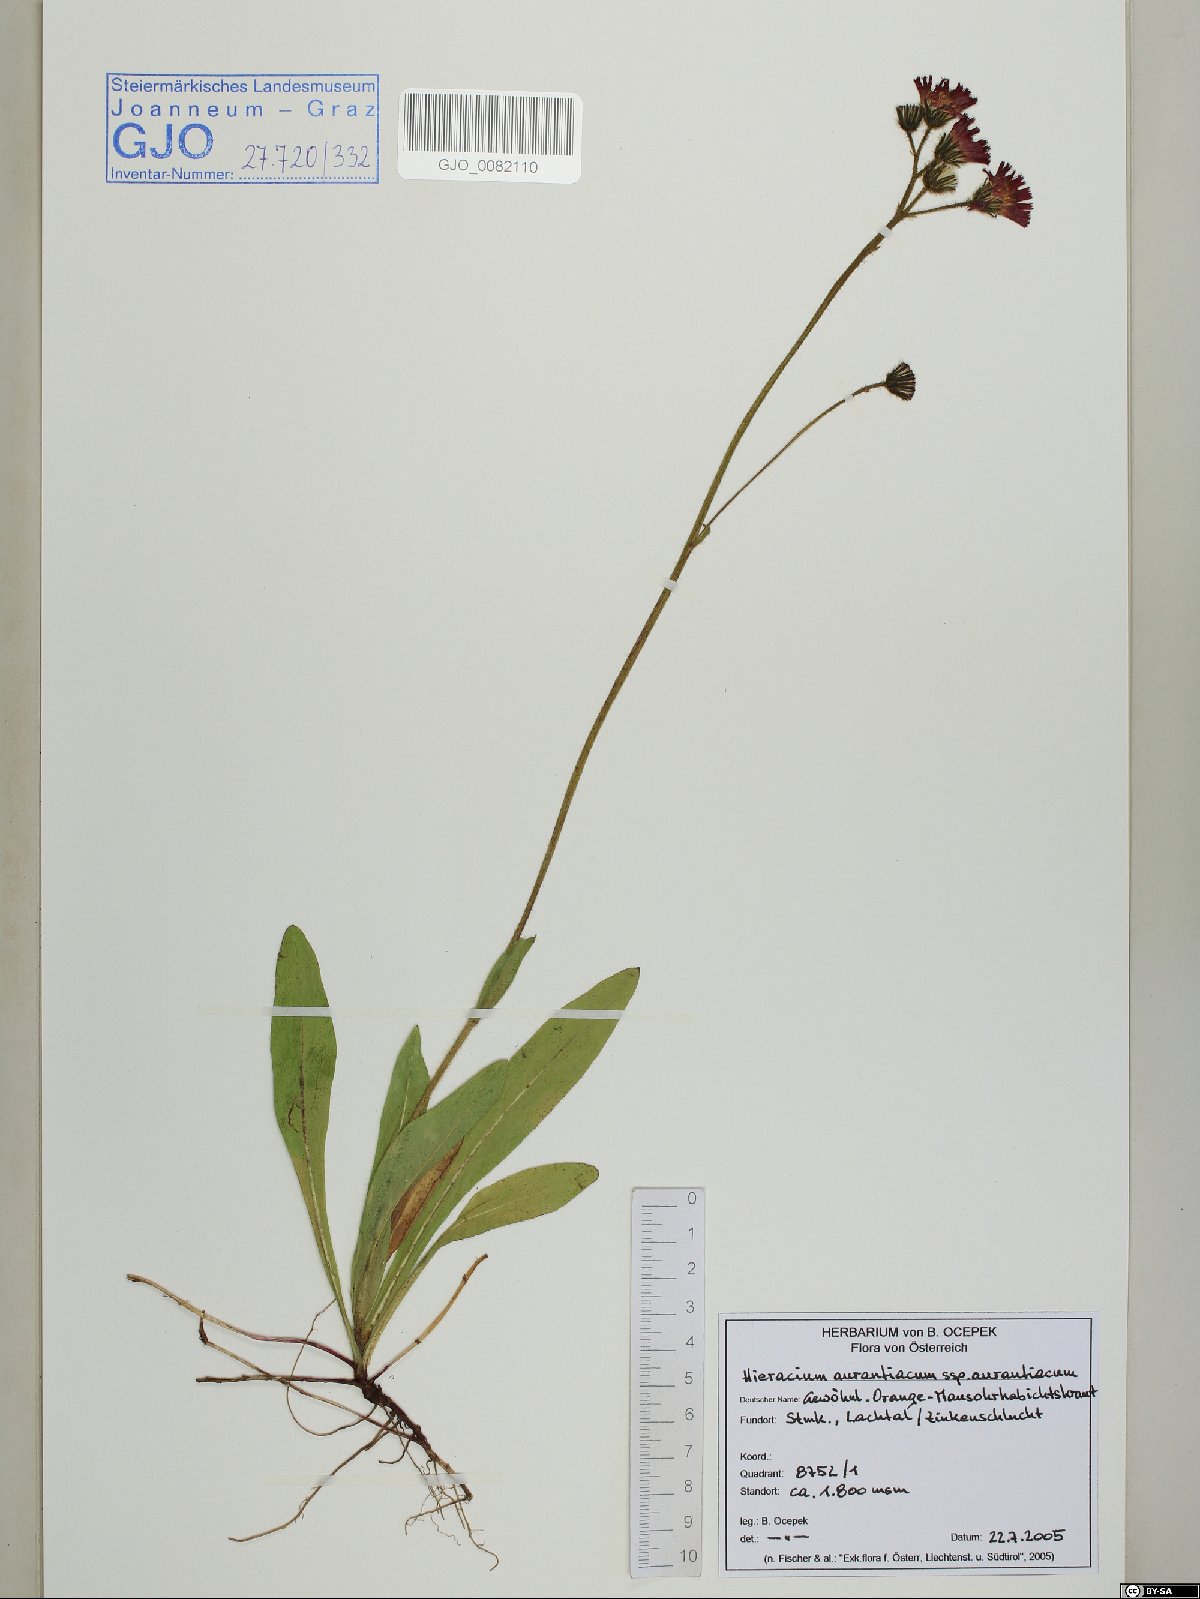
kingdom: Plantae
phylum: Tracheophyta
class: Magnoliopsida
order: Asterales
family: Asteraceae
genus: Pilosella
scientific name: Pilosella aurantiaca
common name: Fox-and-cubs
